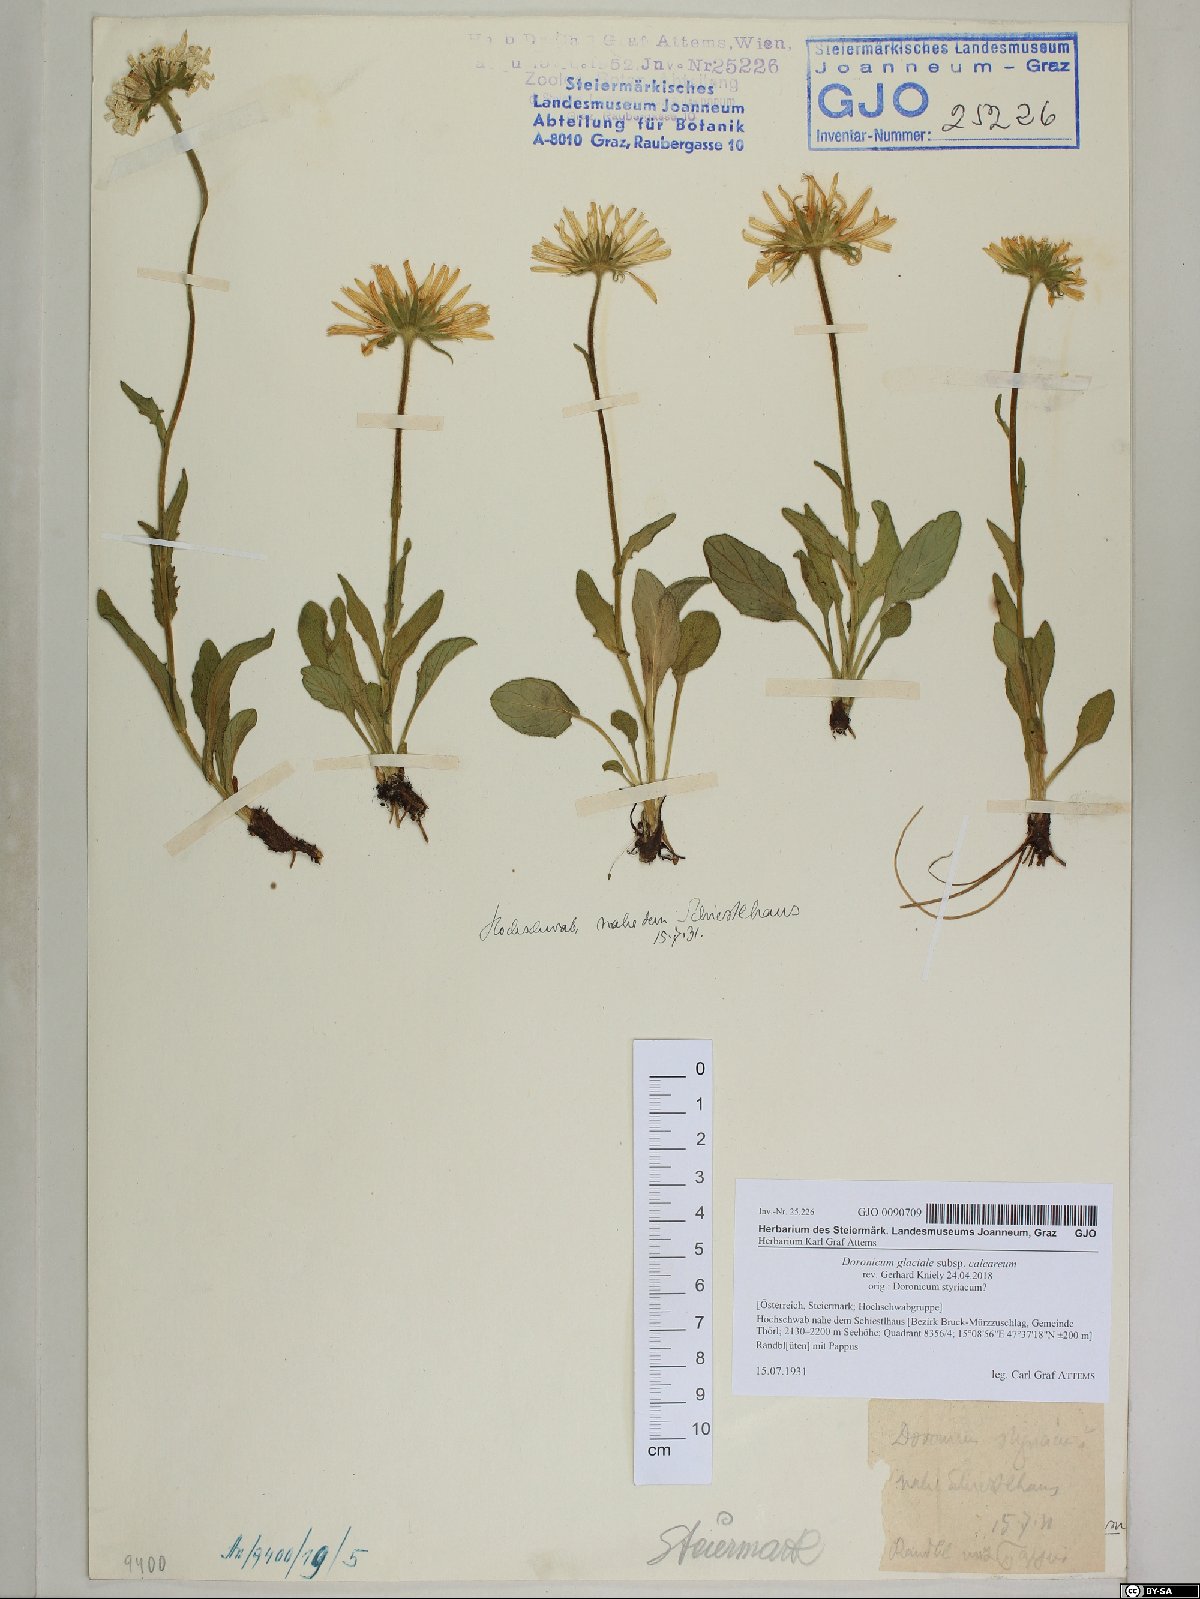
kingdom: Plantae
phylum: Tracheophyta
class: Magnoliopsida
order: Asterales
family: Asteraceae
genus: Doronicum
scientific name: Doronicum glaciale
